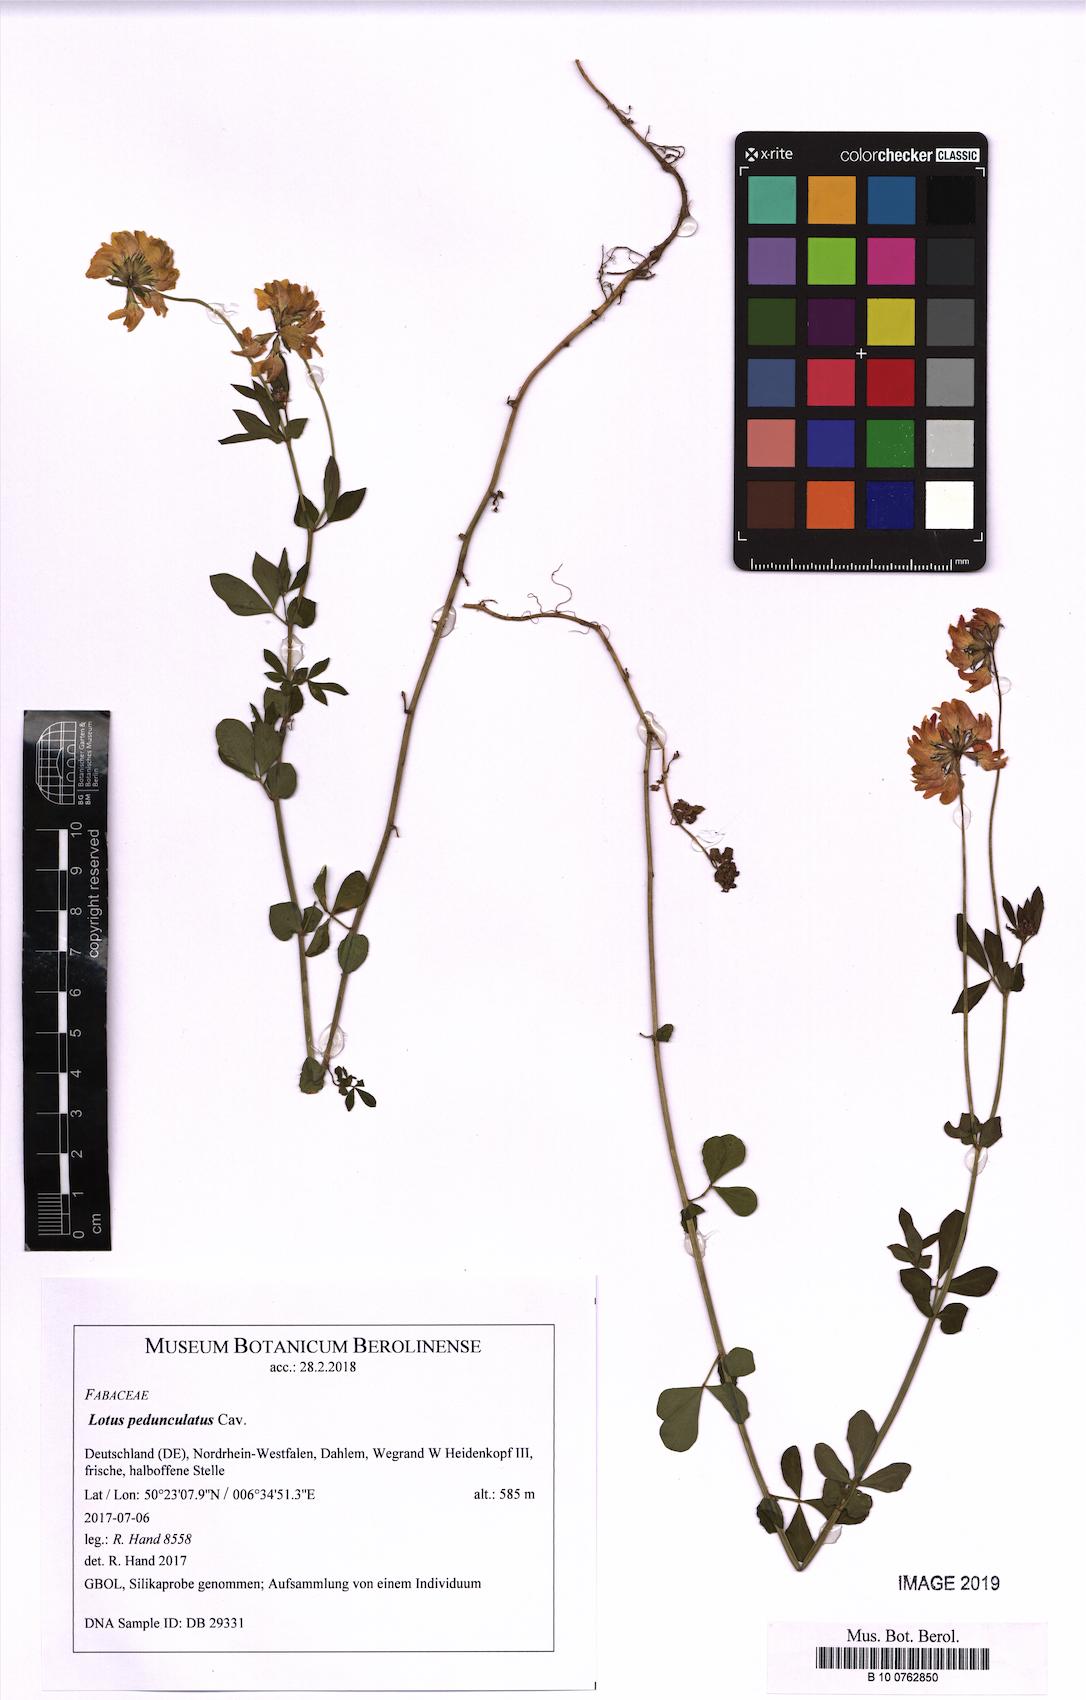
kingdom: Plantae
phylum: Tracheophyta
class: Magnoliopsida
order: Fabales
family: Fabaceae
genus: Lotus
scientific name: Lotus pedunculatus
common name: Greater birdsfoot-trefoil
